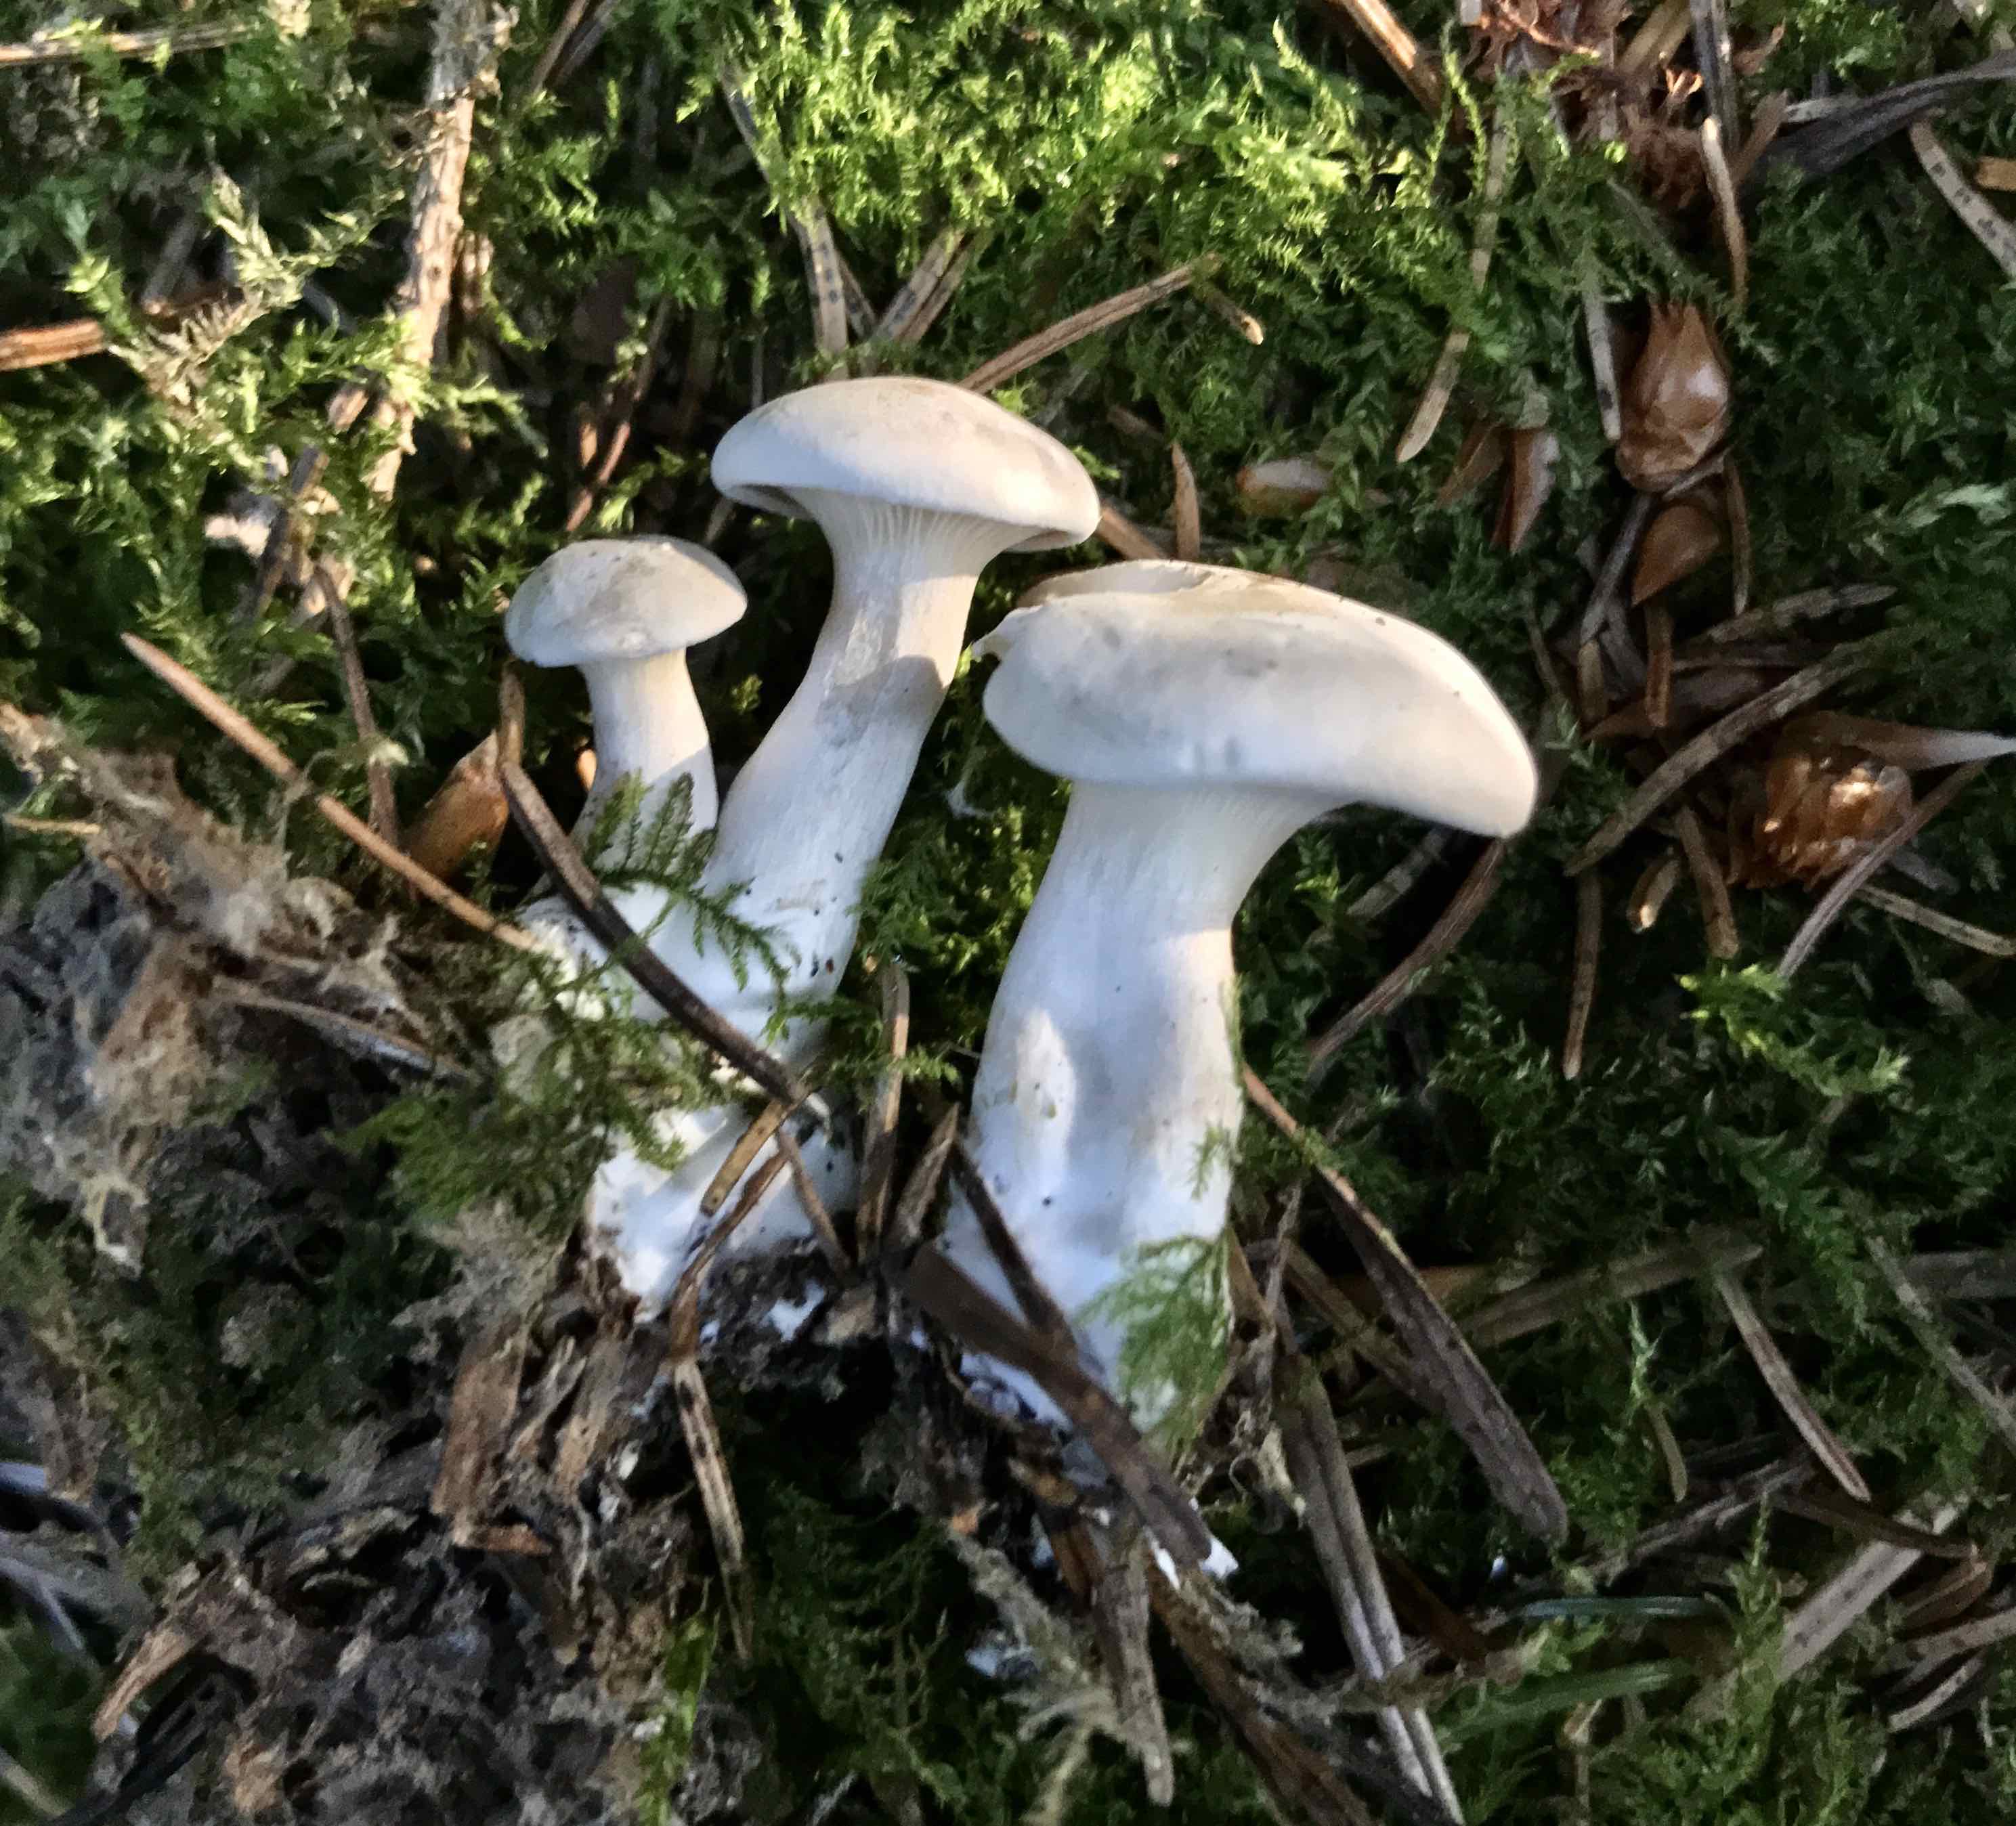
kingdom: Fungi
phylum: Basidiomycota
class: Agaricomycetes
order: Agaricales
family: Entolomataceae
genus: Clitopilus
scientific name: Clitopilus prunulus
